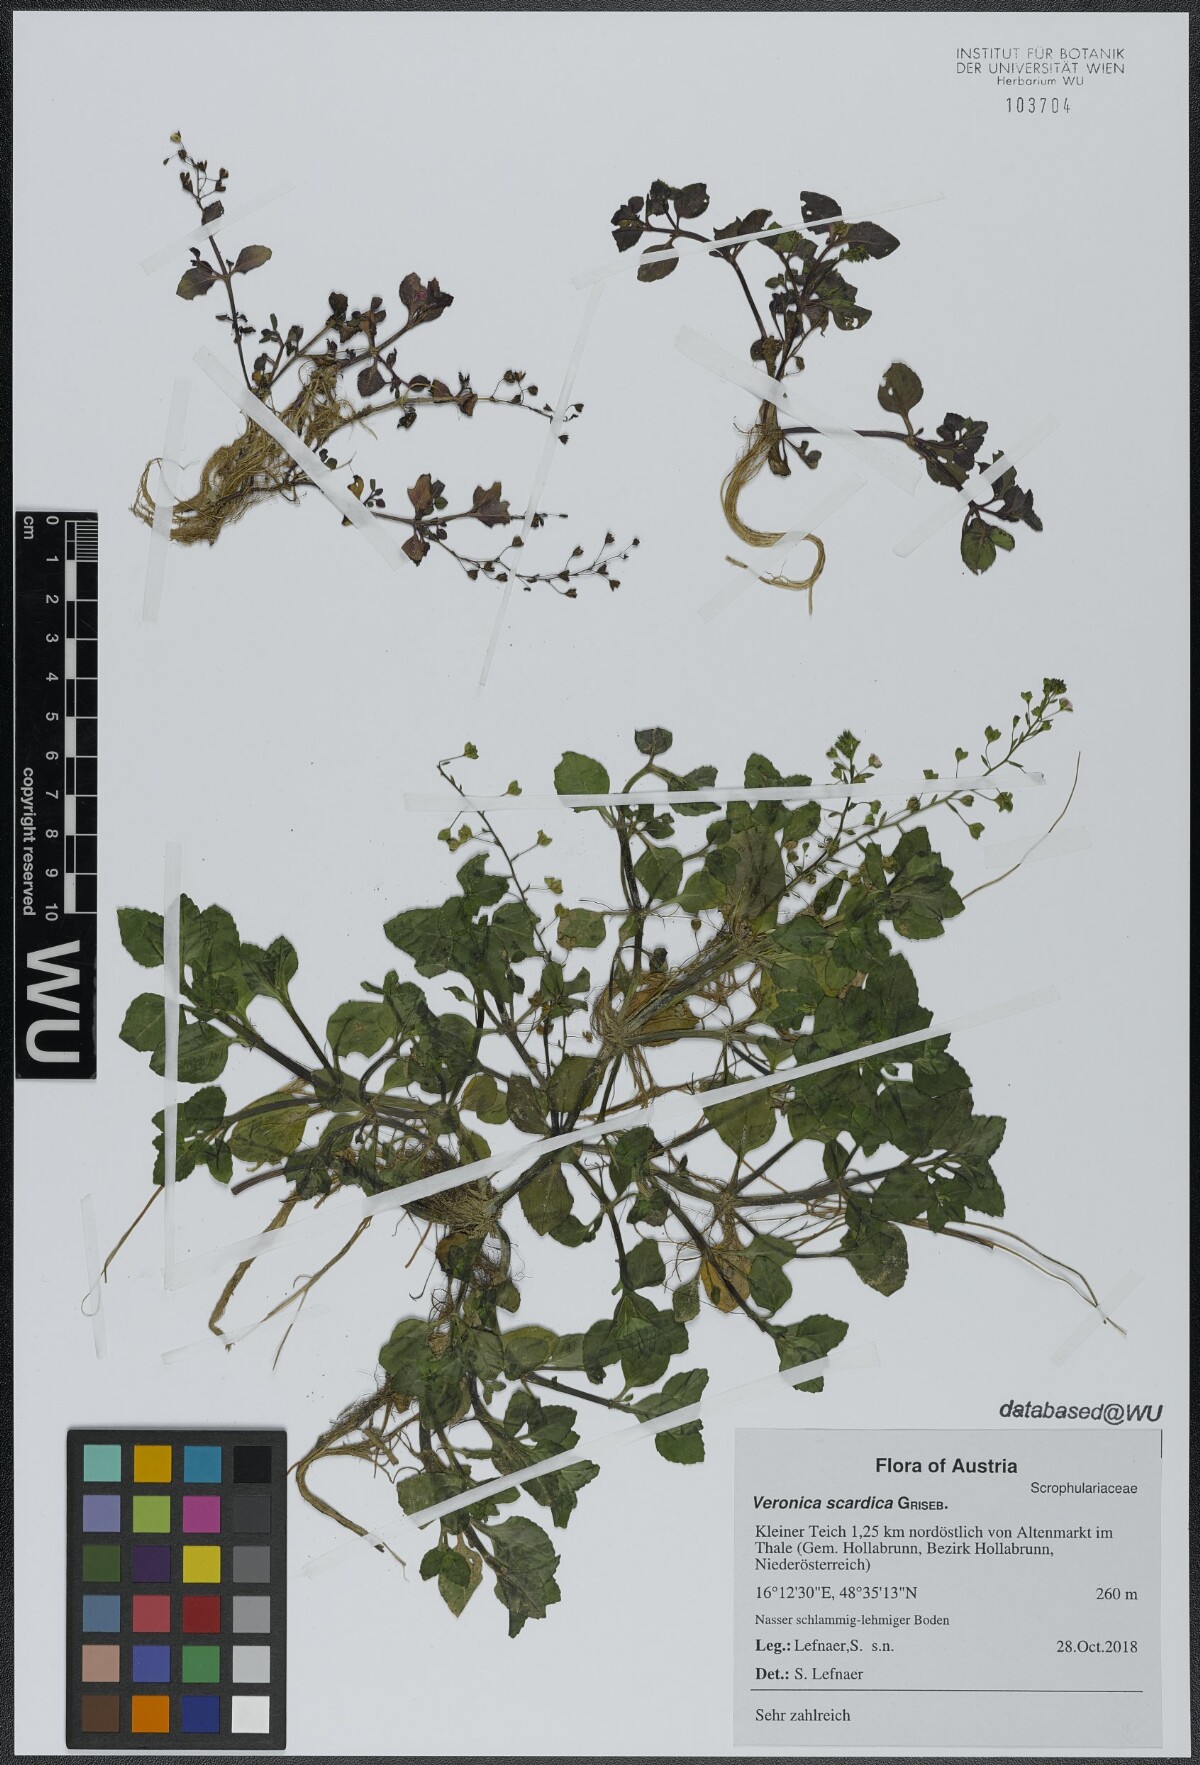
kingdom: Plantae
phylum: Tracheophyta
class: Magnoliopsida
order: Lamiales
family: Plantaginaceae
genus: Veronica
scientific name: Veronica scardica
